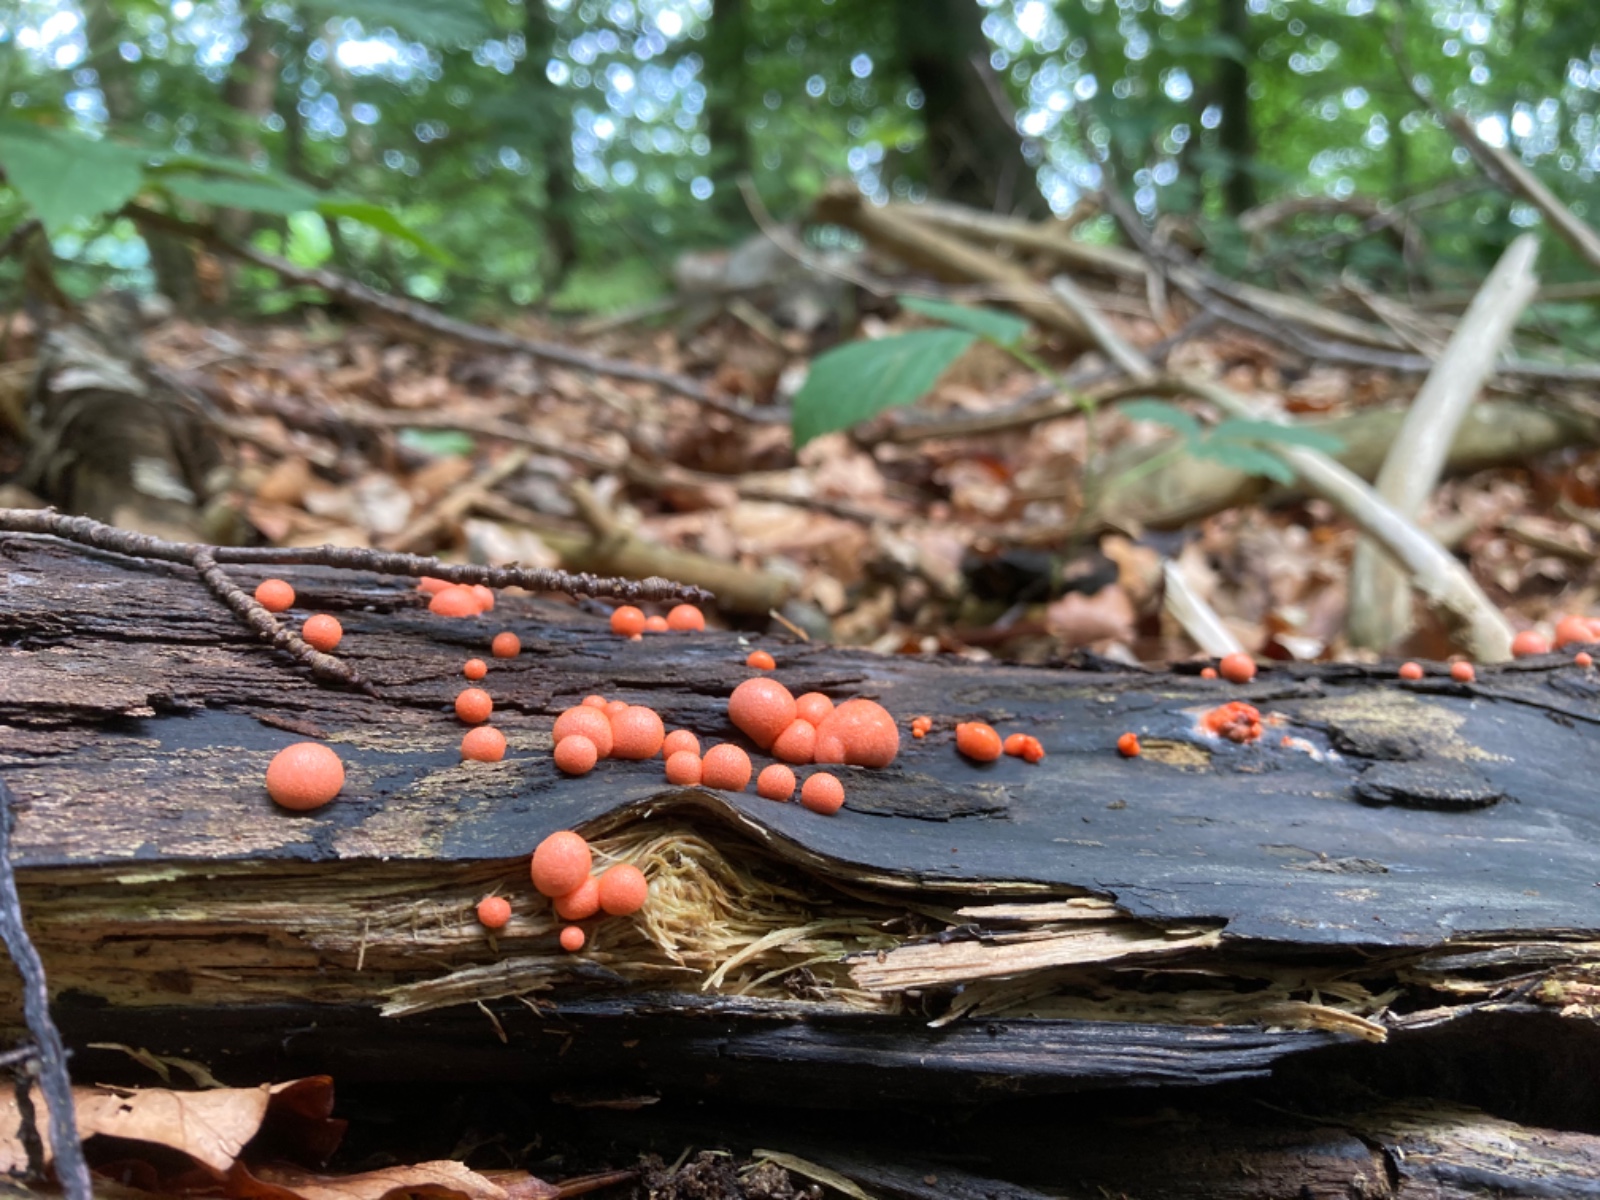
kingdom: Protozoa
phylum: Mycetozoa
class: Myxomycetes
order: Cribrariales
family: Tubiferaceae
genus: Lycogala
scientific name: Lycogala epidendrum
